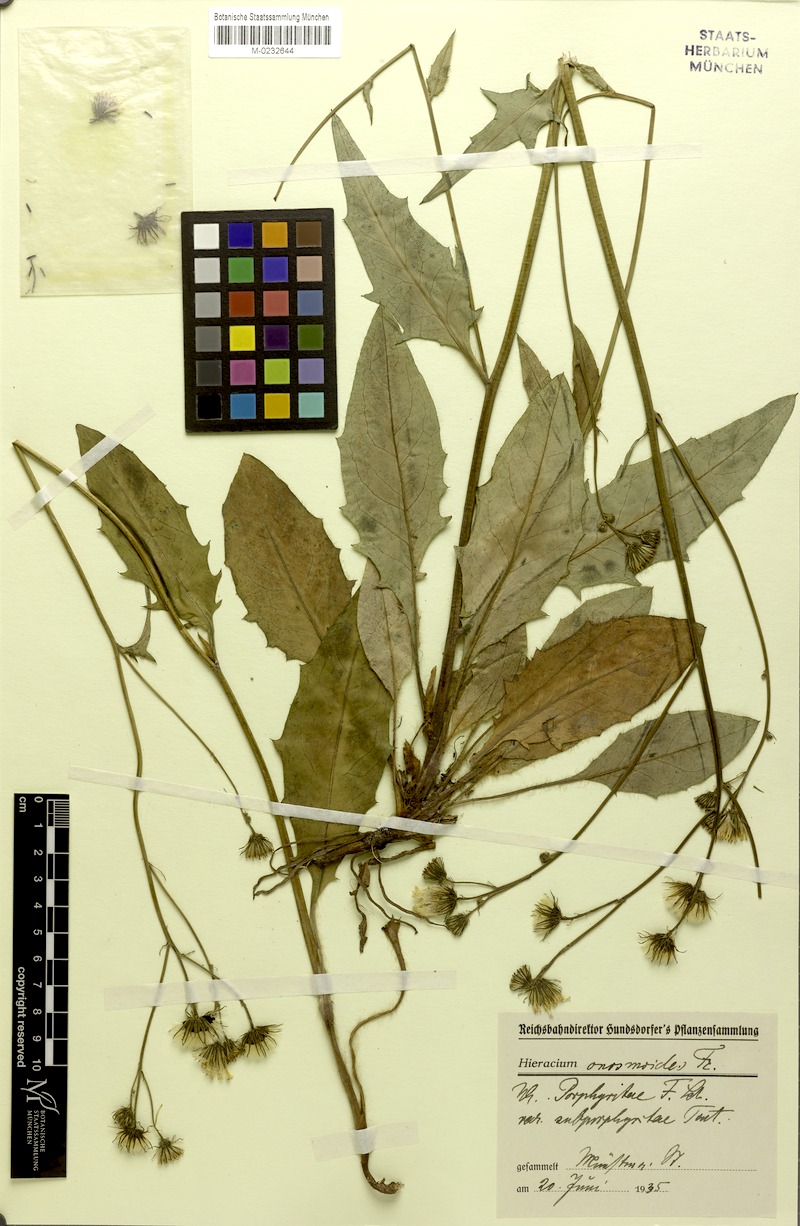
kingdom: Plantae
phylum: Tracheophyta
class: Magnoliopsida
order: Asterales
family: Asteraceae
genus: Hieracium
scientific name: Hieracium onosmoides
